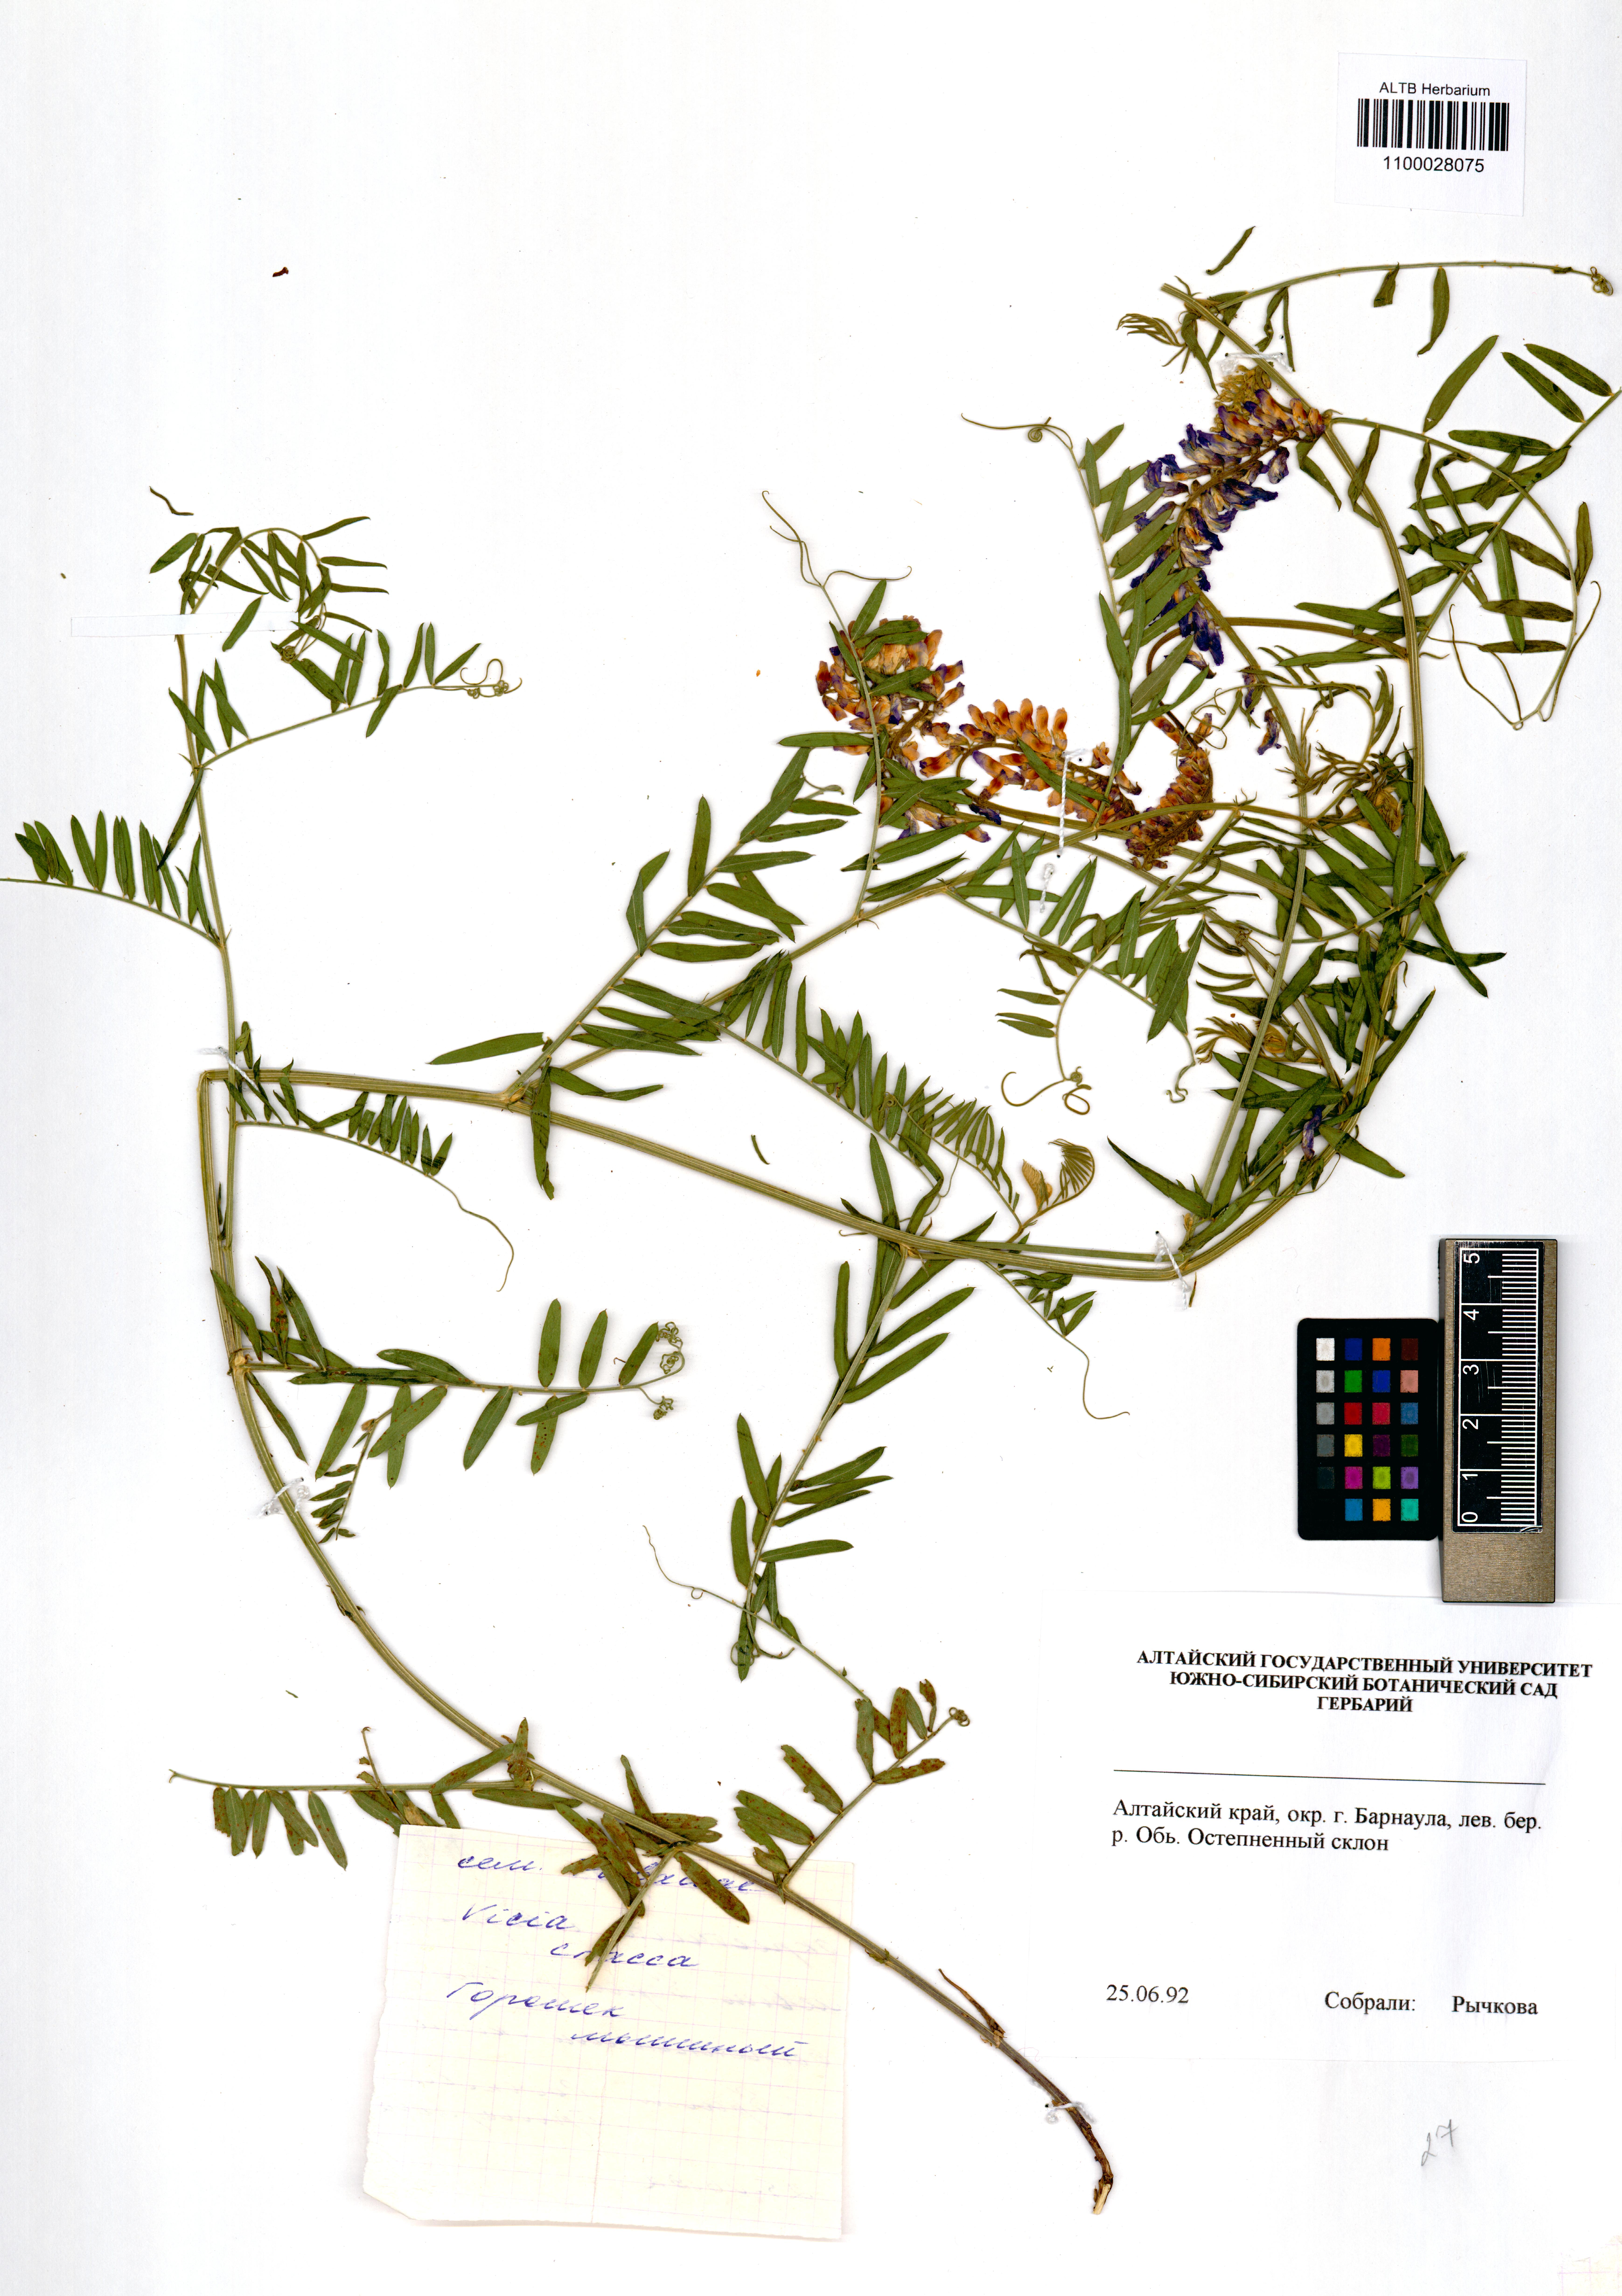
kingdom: Plantae
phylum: Tracheophyta
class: Magnoliopsida
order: Fabales
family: Fabaceae
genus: Vicia
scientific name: Vicia cracca
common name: Bird vetch
